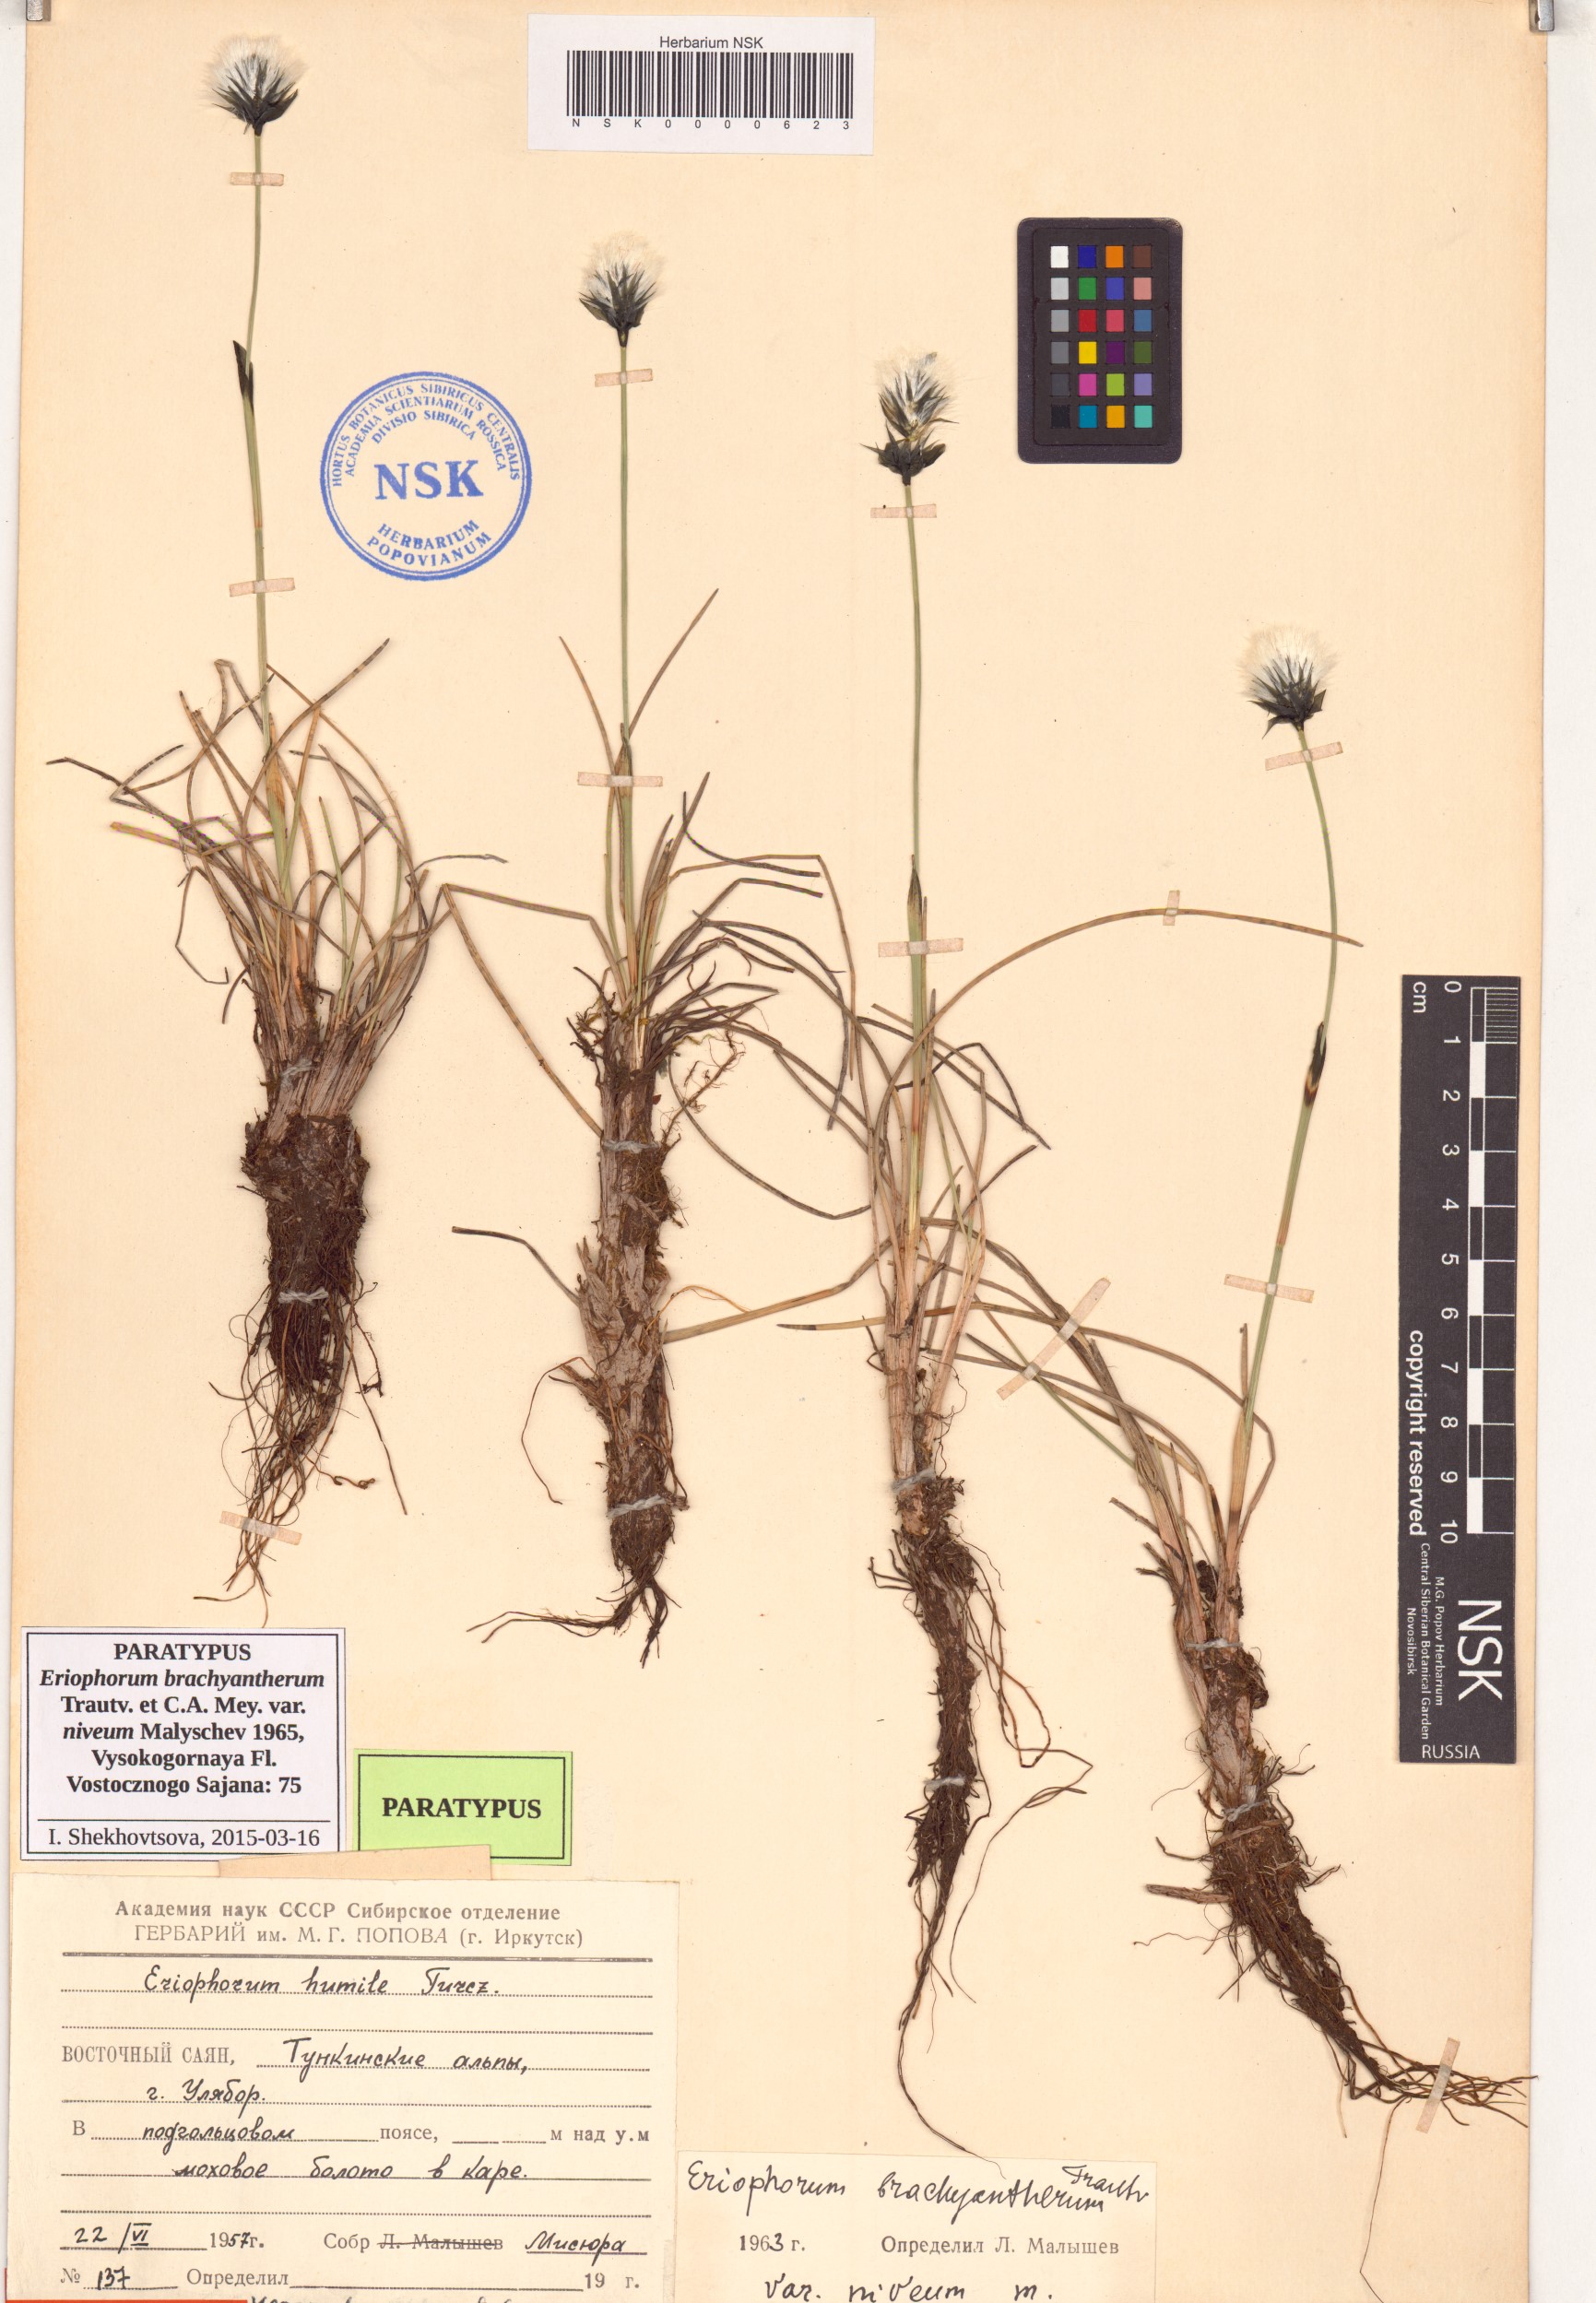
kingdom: Plantae
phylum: Tracheophyta
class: Liliopsida
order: Poales
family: Cyperaceae
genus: Eriophorum
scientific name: Eriophorum brachyantherum
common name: Closed-sheathed cottongrass
